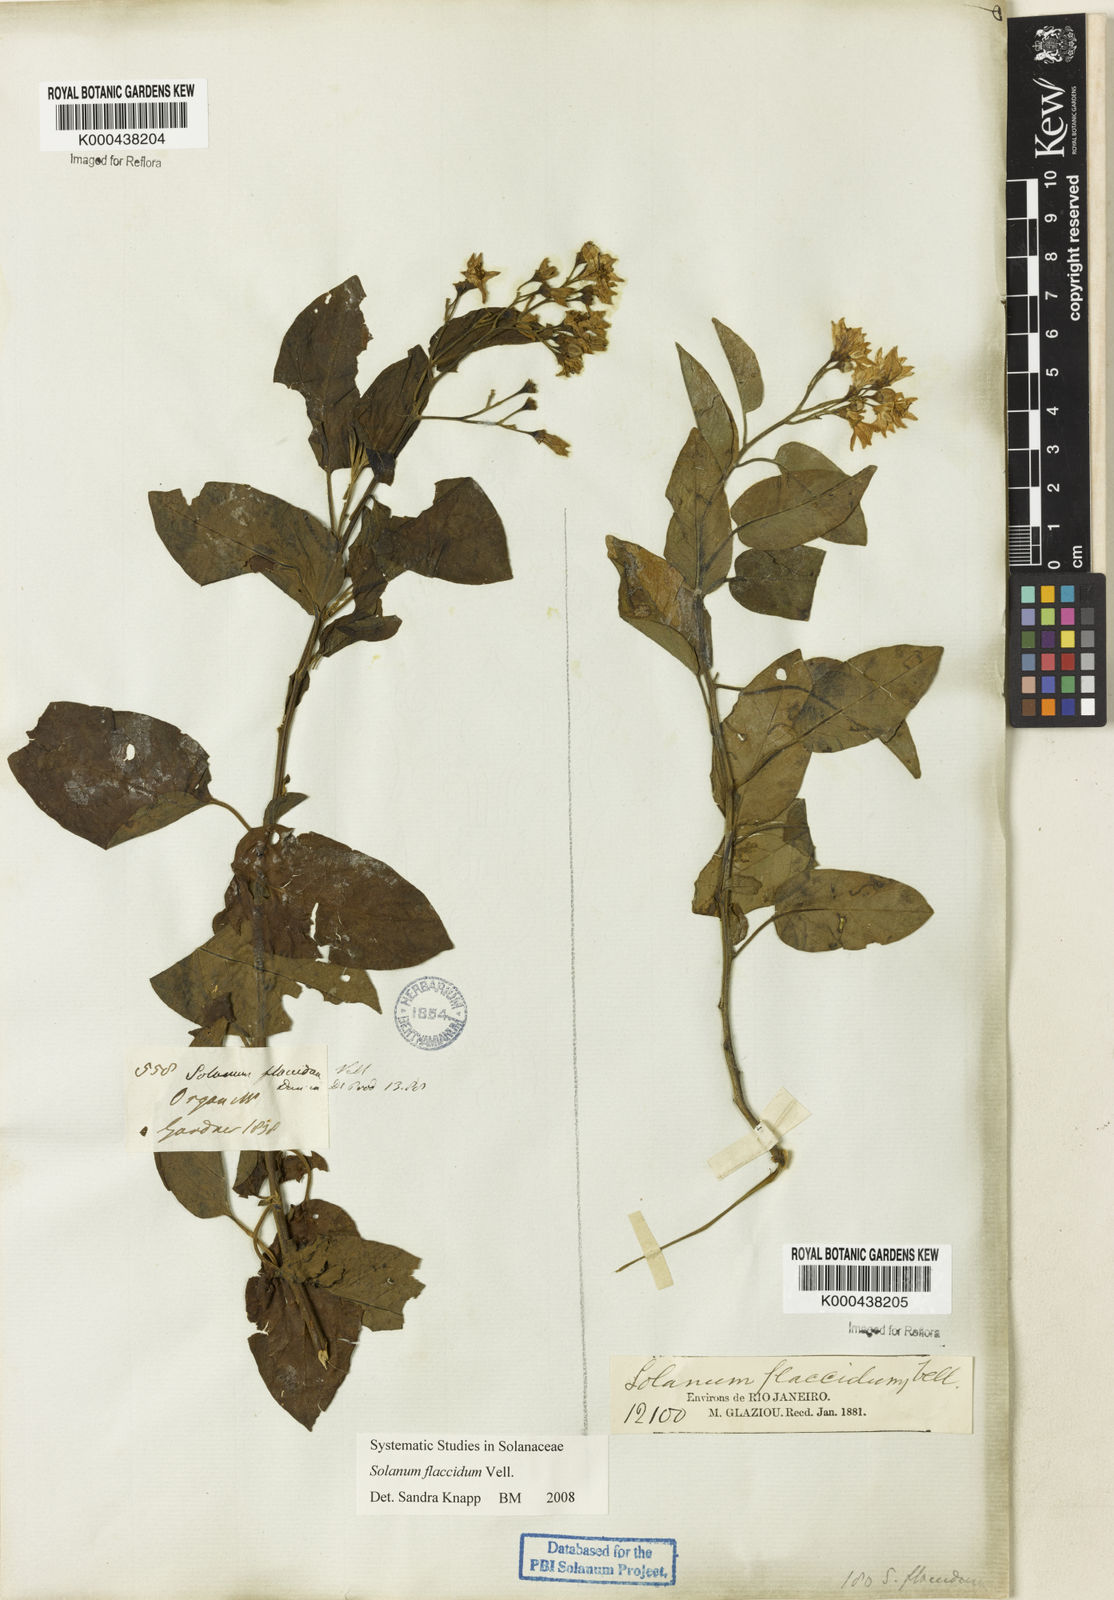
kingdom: Plantae
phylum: Tracheophyta
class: Magnoliopsida
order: Solanales
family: Solanaceae
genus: Solanum
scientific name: Solanum flaccidum
